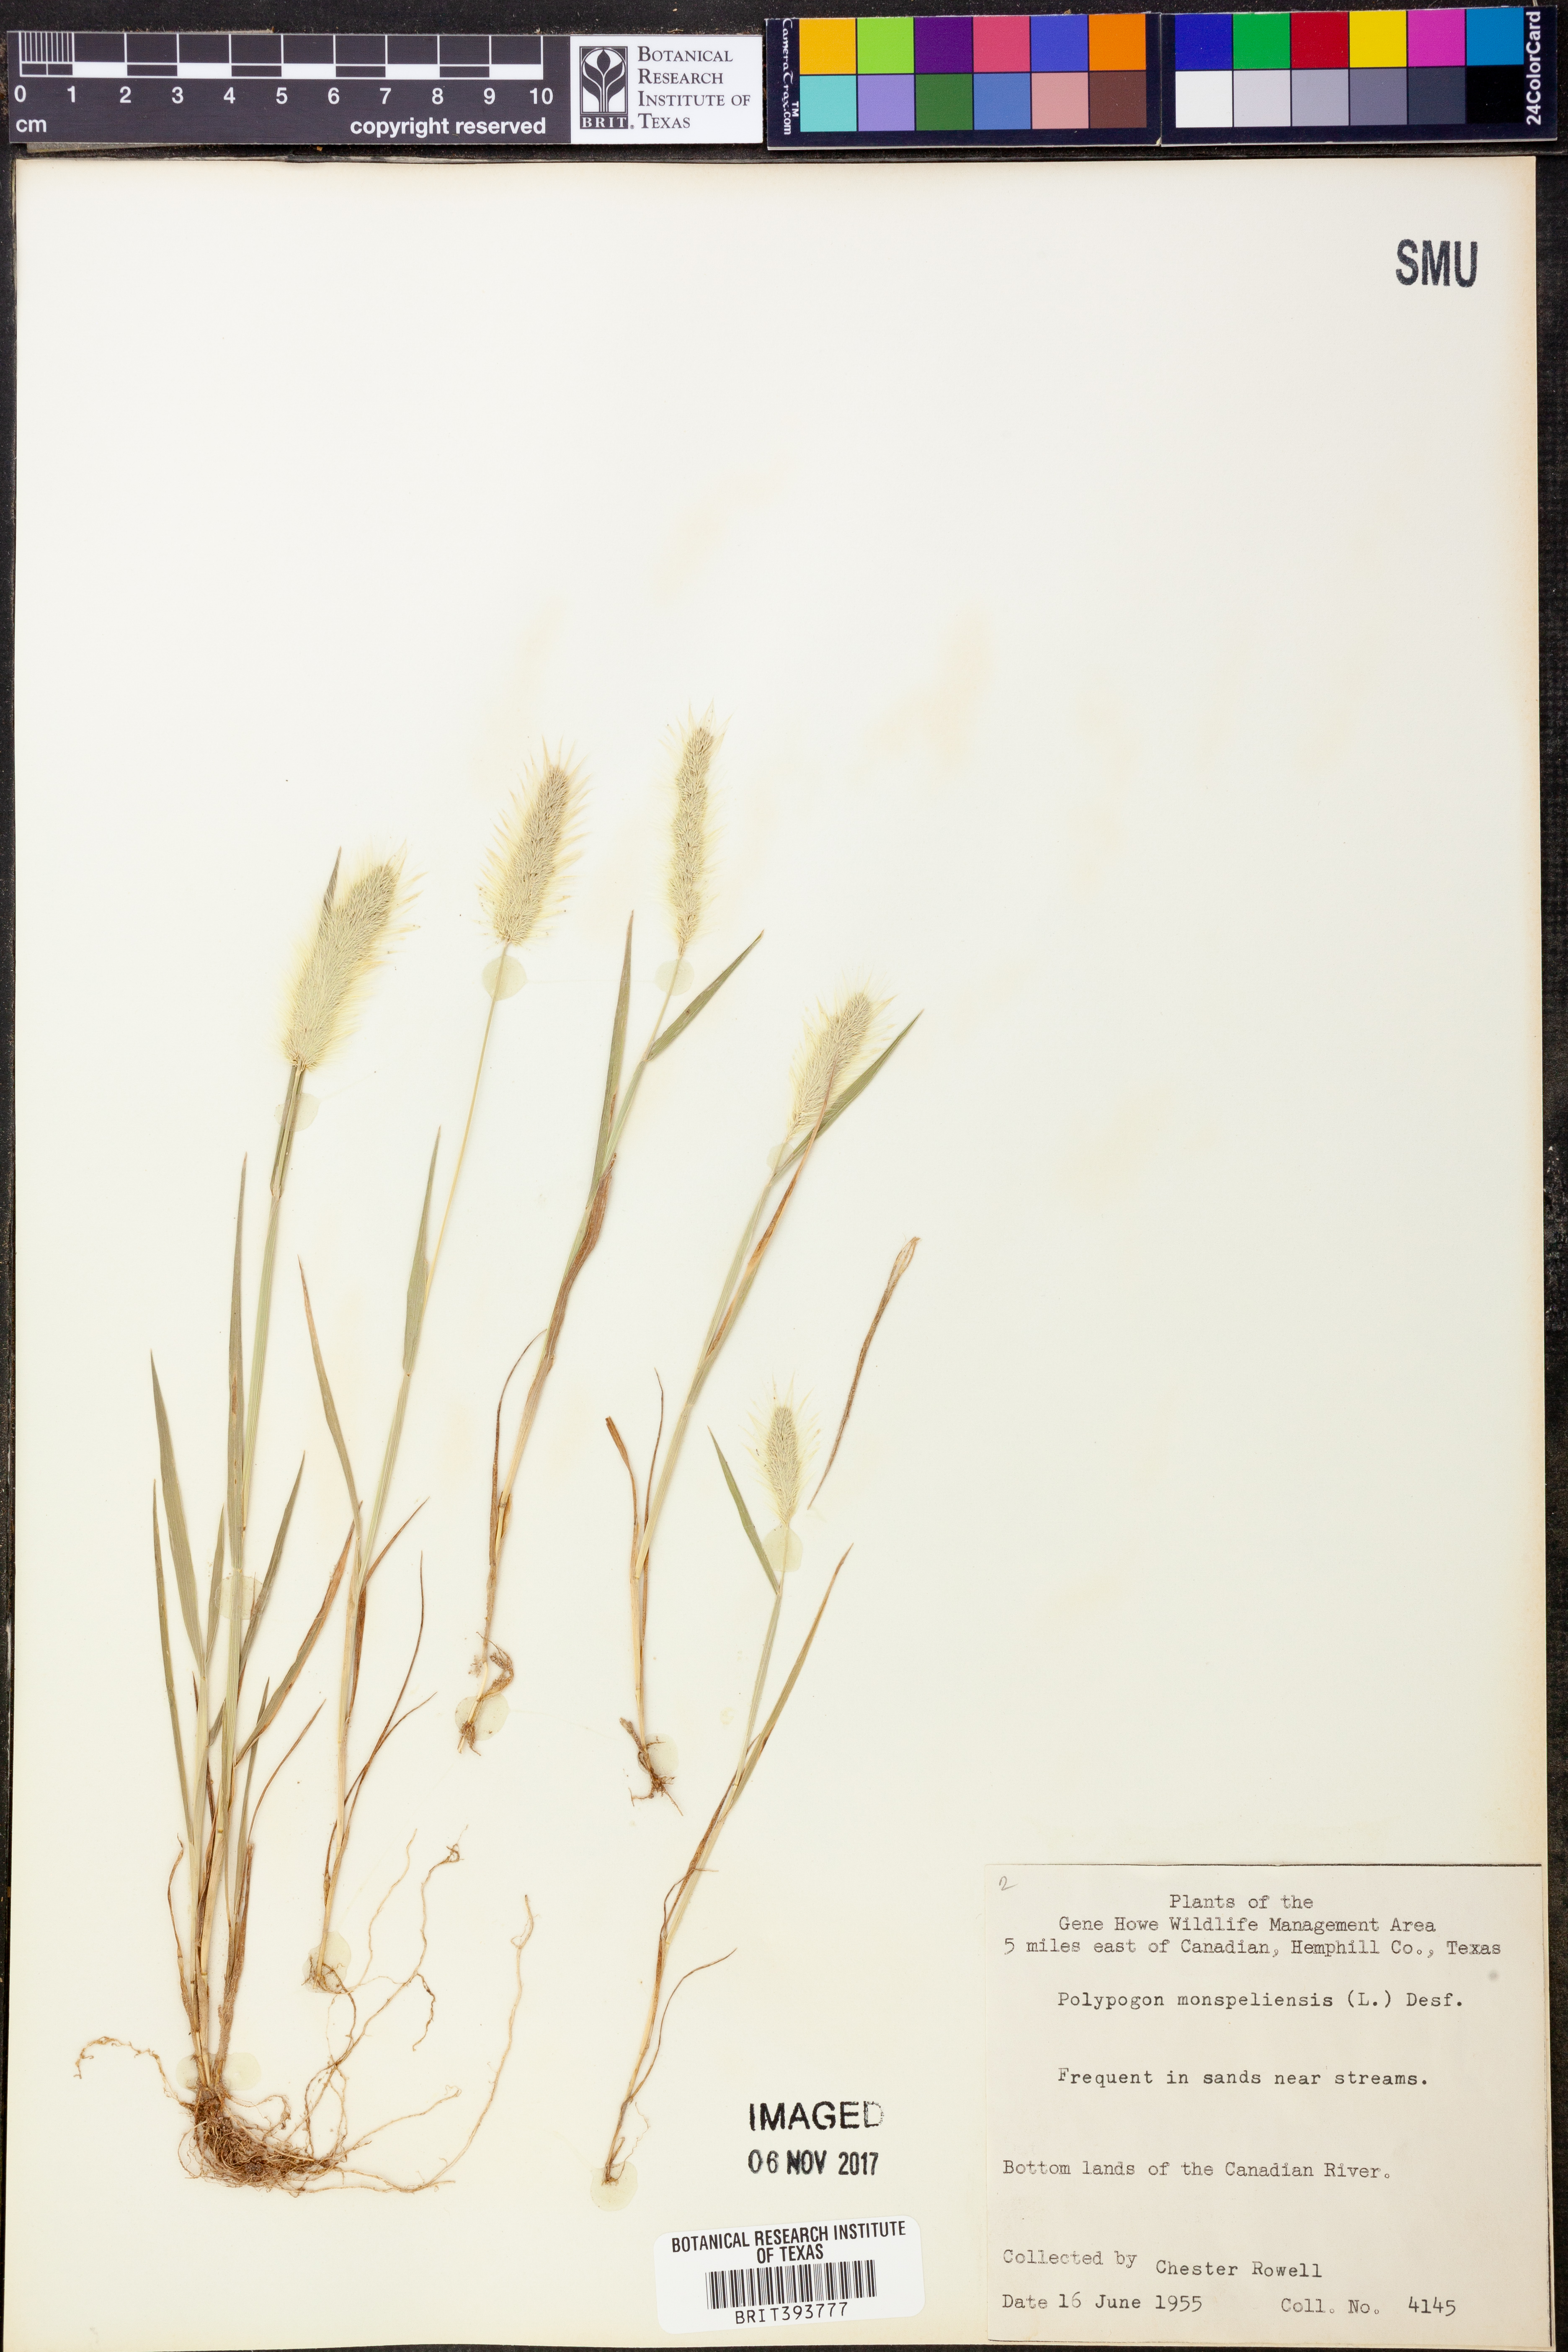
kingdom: Plantae
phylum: Tracheophyta
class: Liliopsida
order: Poales
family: Poaceae
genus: Polypogon
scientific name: Polypogon monspeliensis
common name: Annual rabbitsfoot grass
